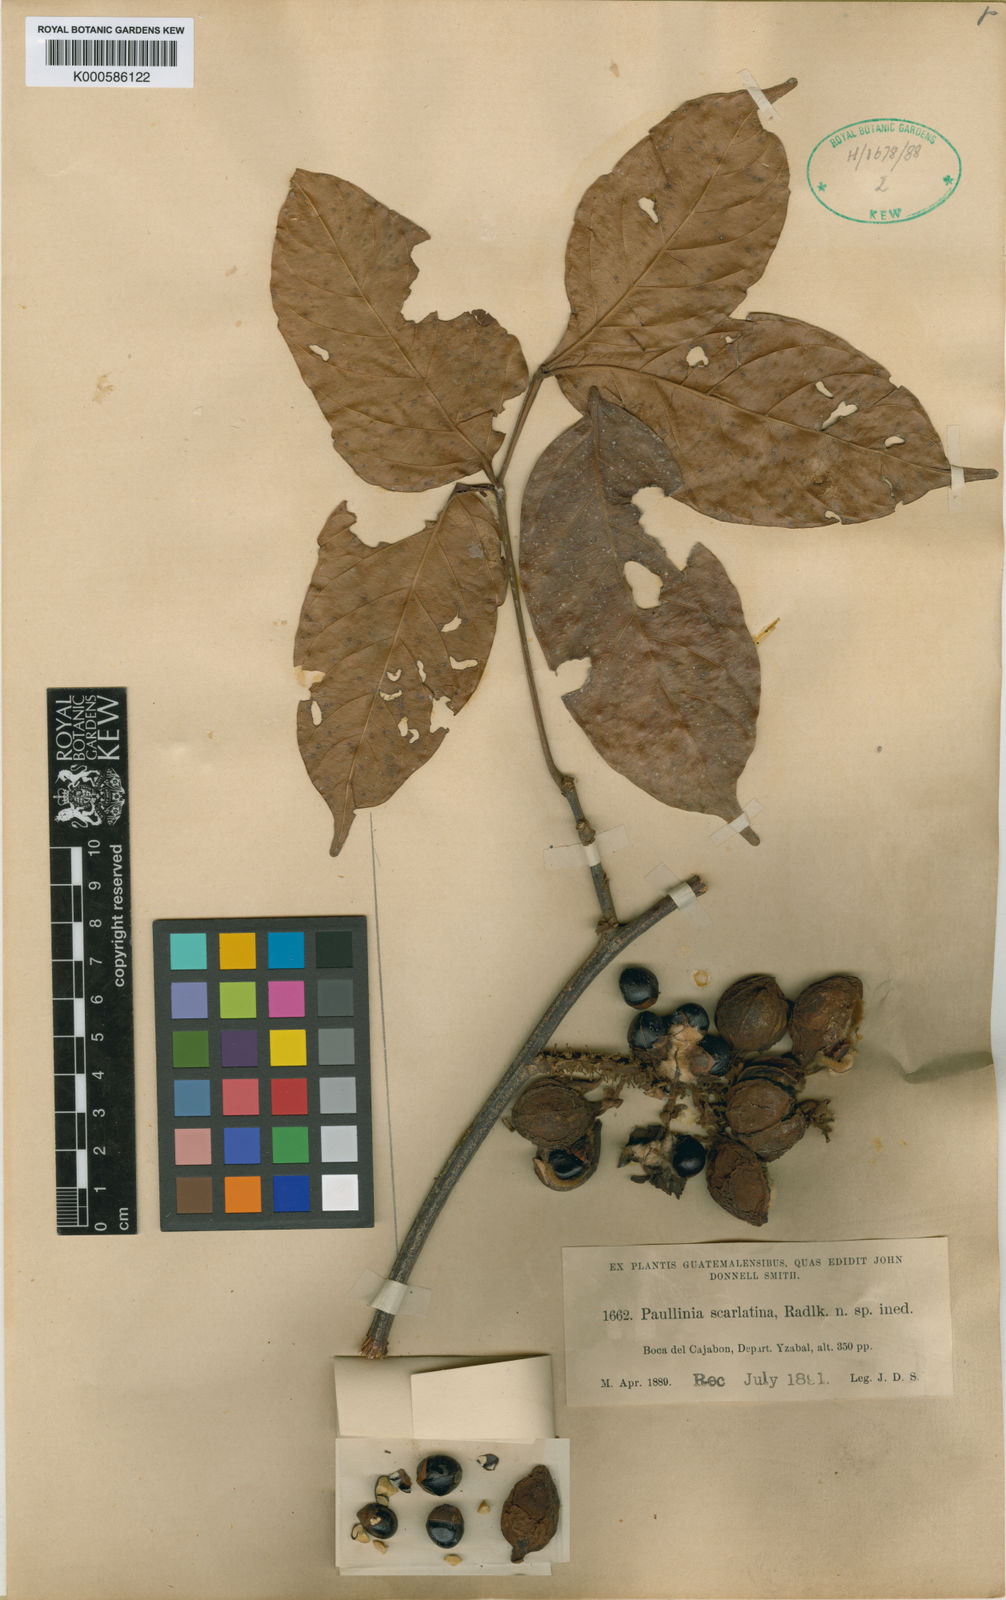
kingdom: Plantae
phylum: Tracheophyta
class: Magnoliopsida
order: Sapindales
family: Sapindaceae
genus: Paullinia
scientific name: Paullinia costata
